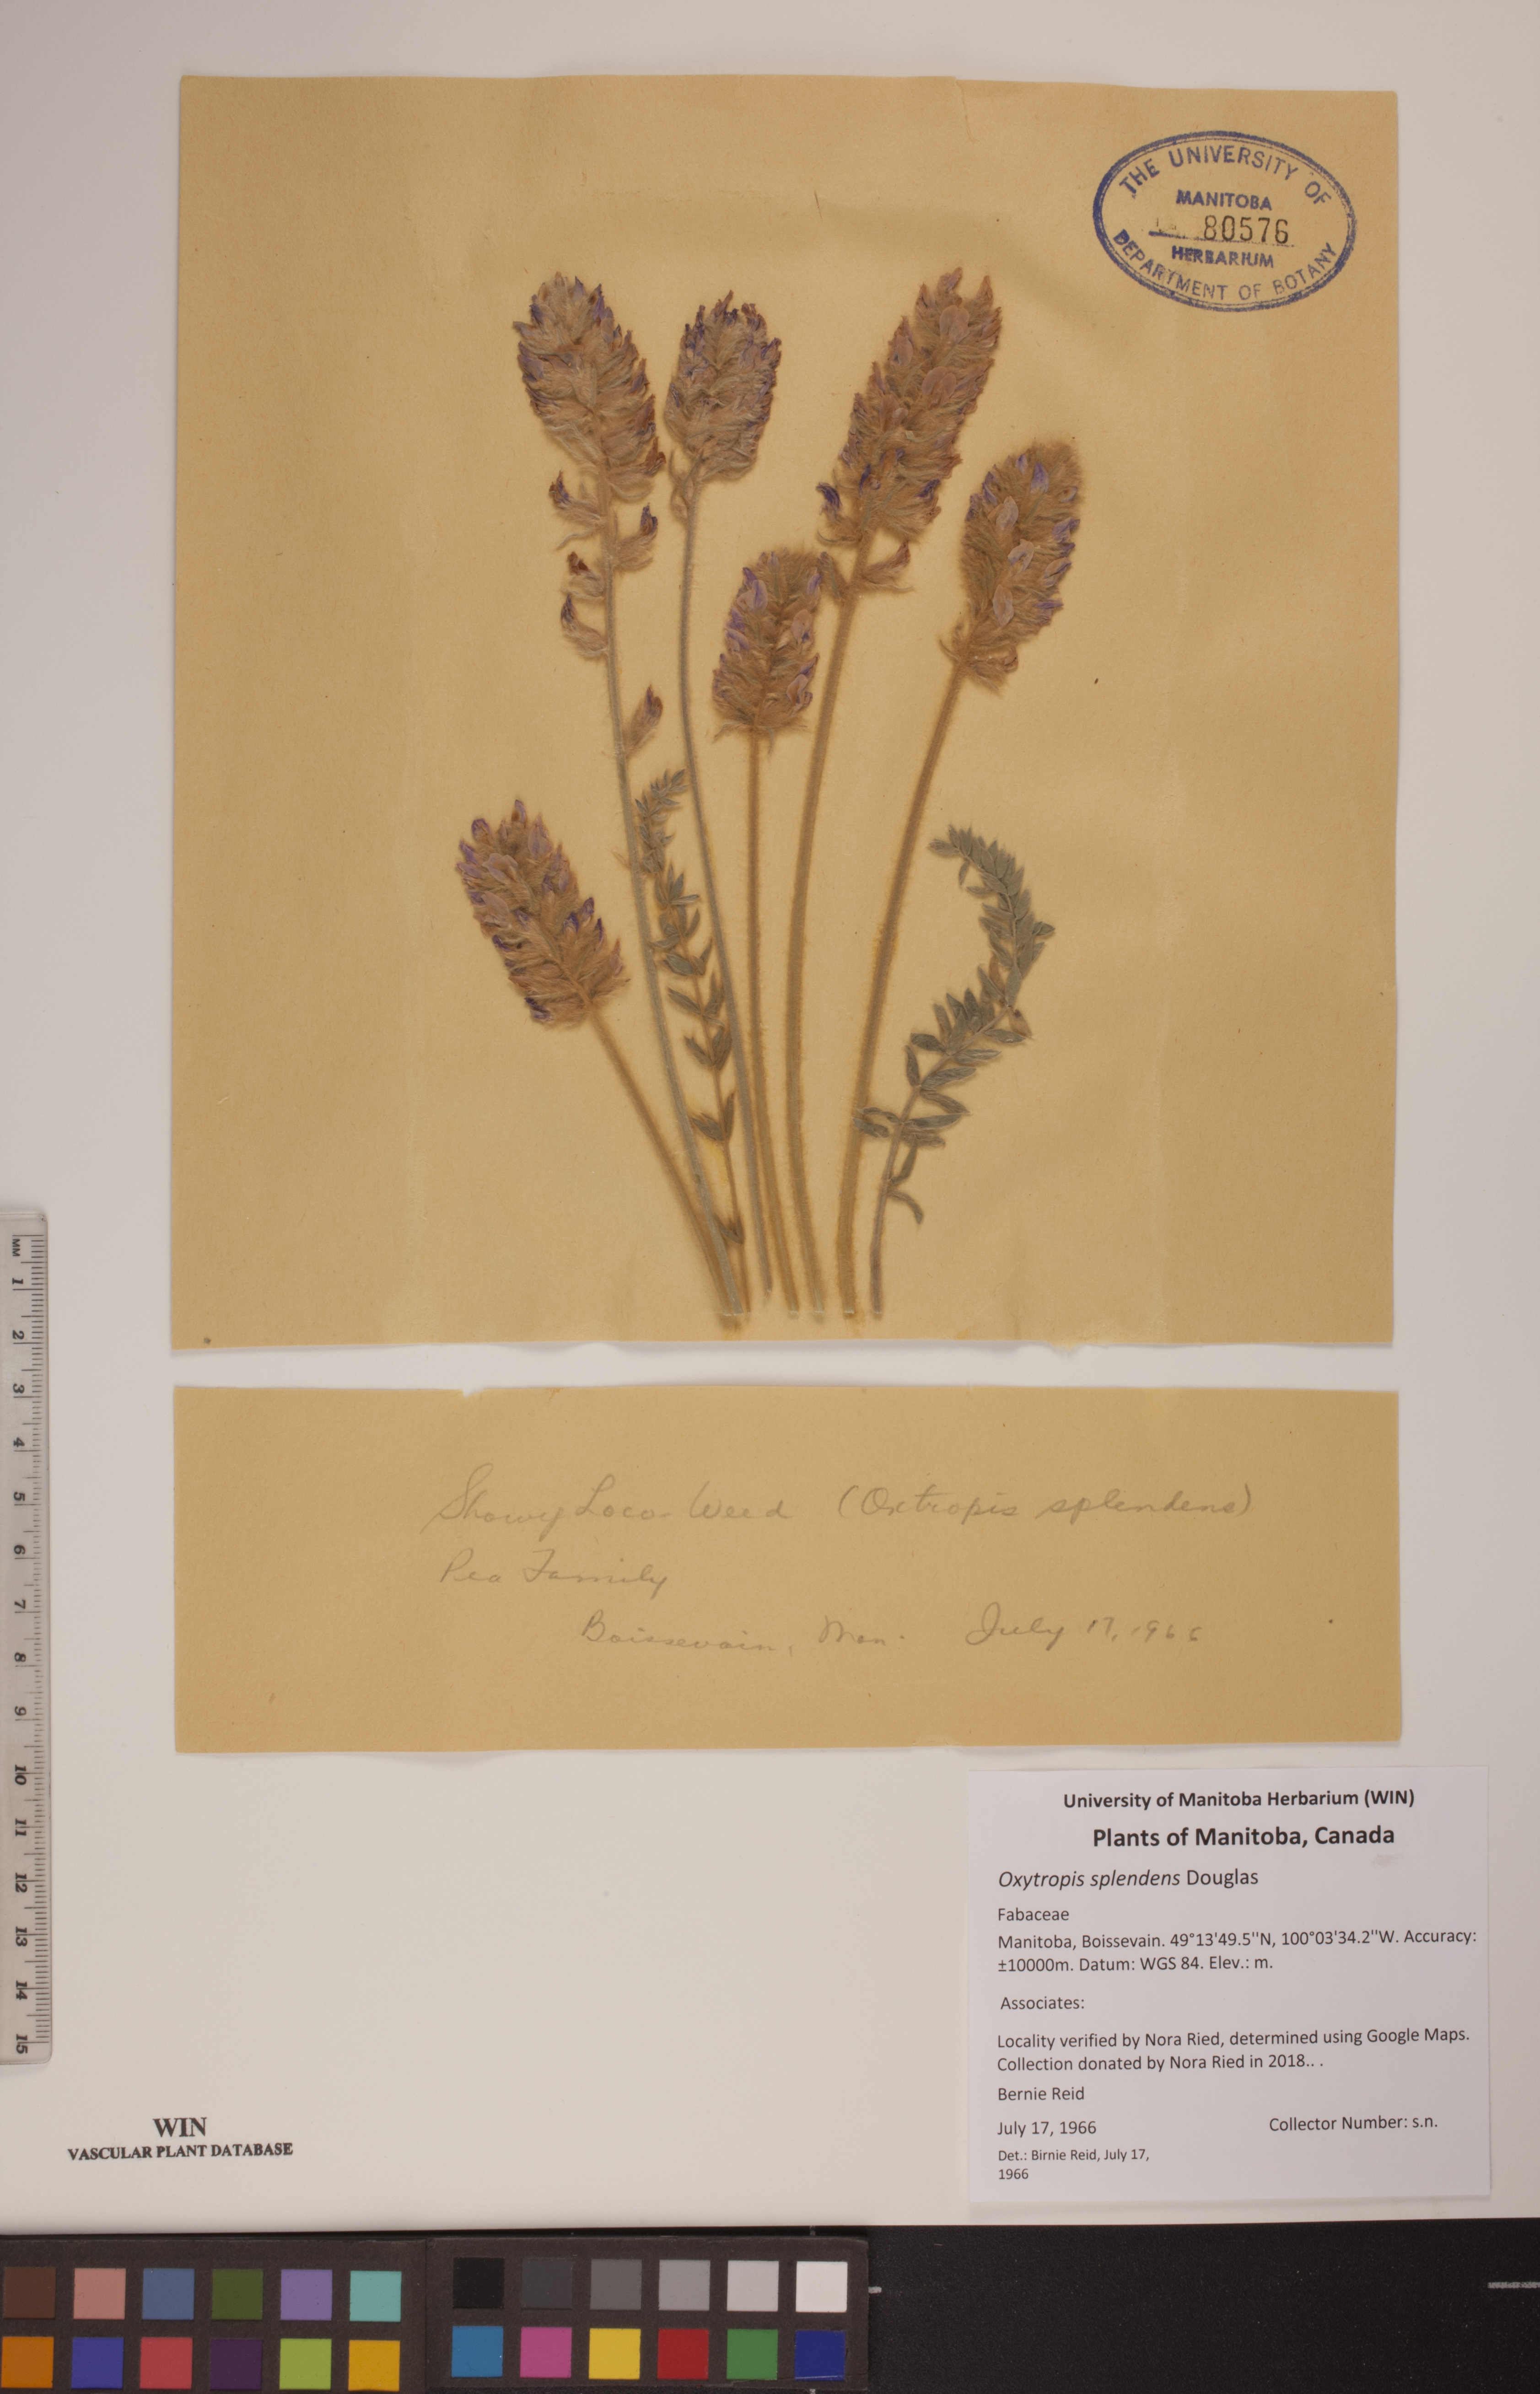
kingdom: Plantae
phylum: Tracheophyta
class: Magnoliopsida
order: Fabales
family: Fabaceae
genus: Oxytropis
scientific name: Oxytropis splendens
